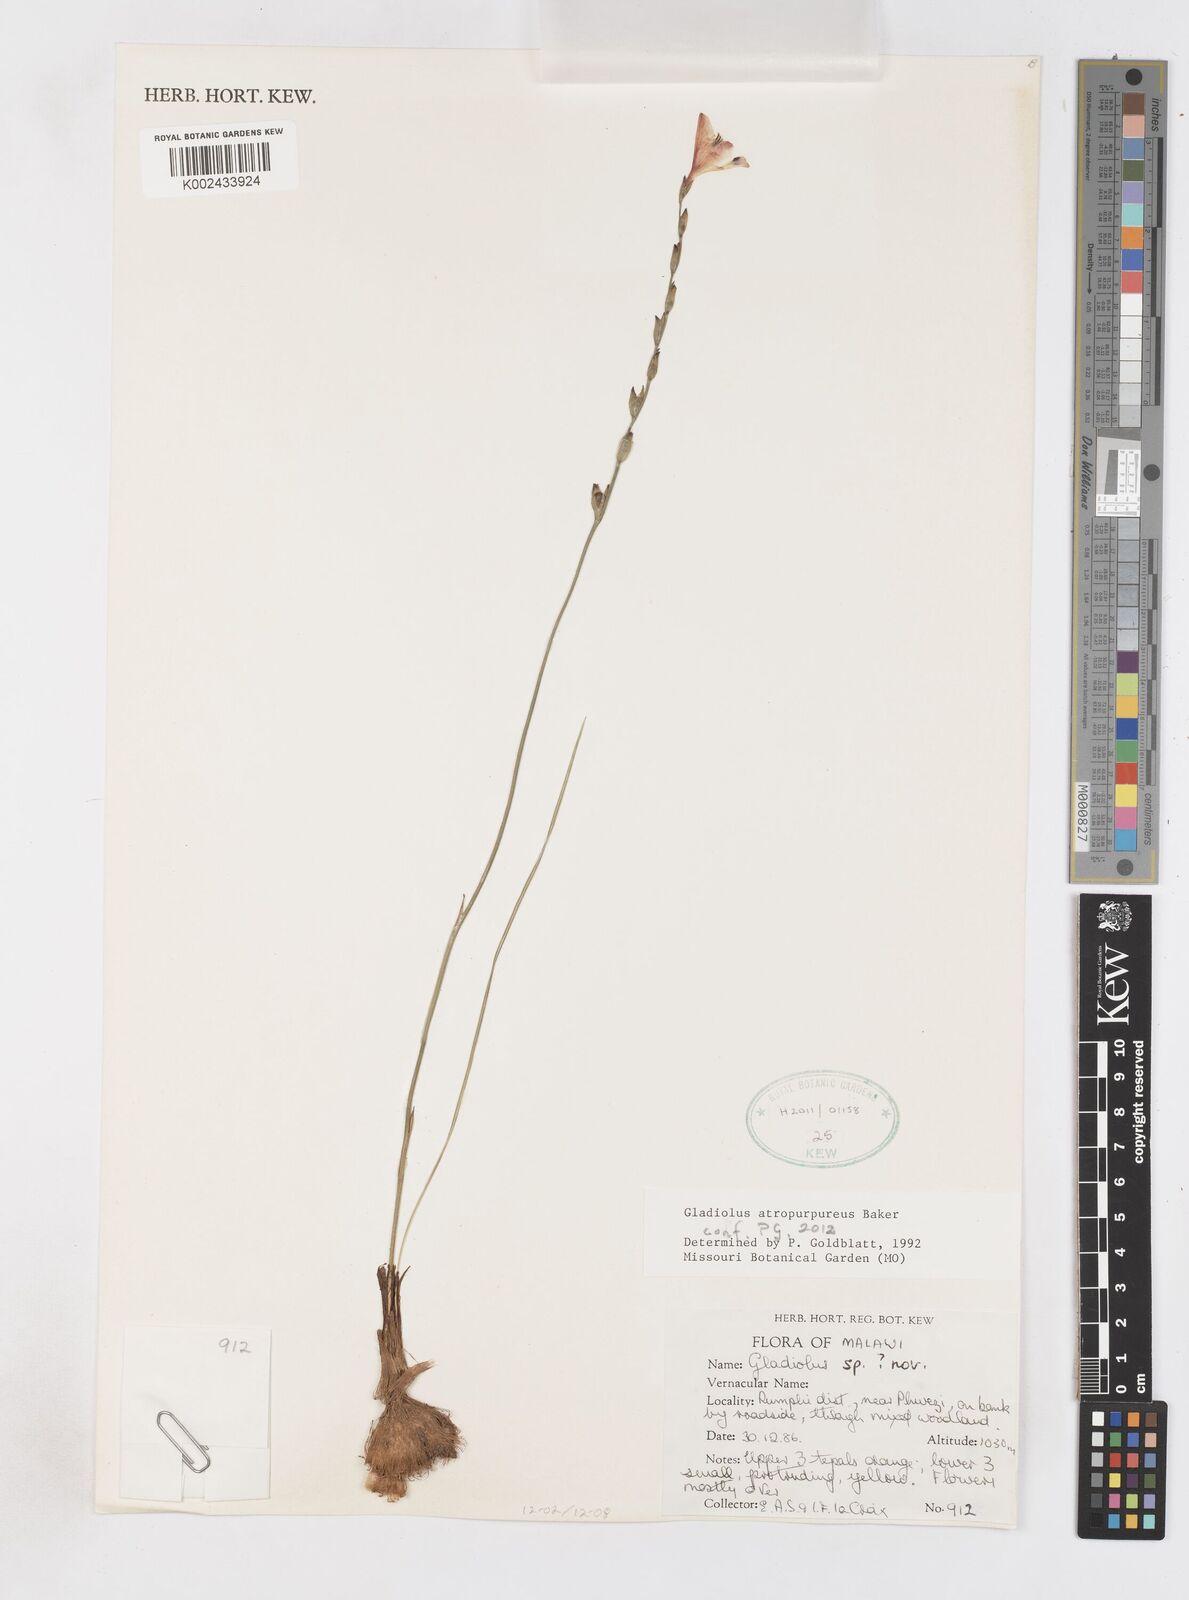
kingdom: Plantae
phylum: Tracheophyta
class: Liliopsida
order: Asparagales
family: Iridaceae
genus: Gladiolus
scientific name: Gladiolus atropurpureus
